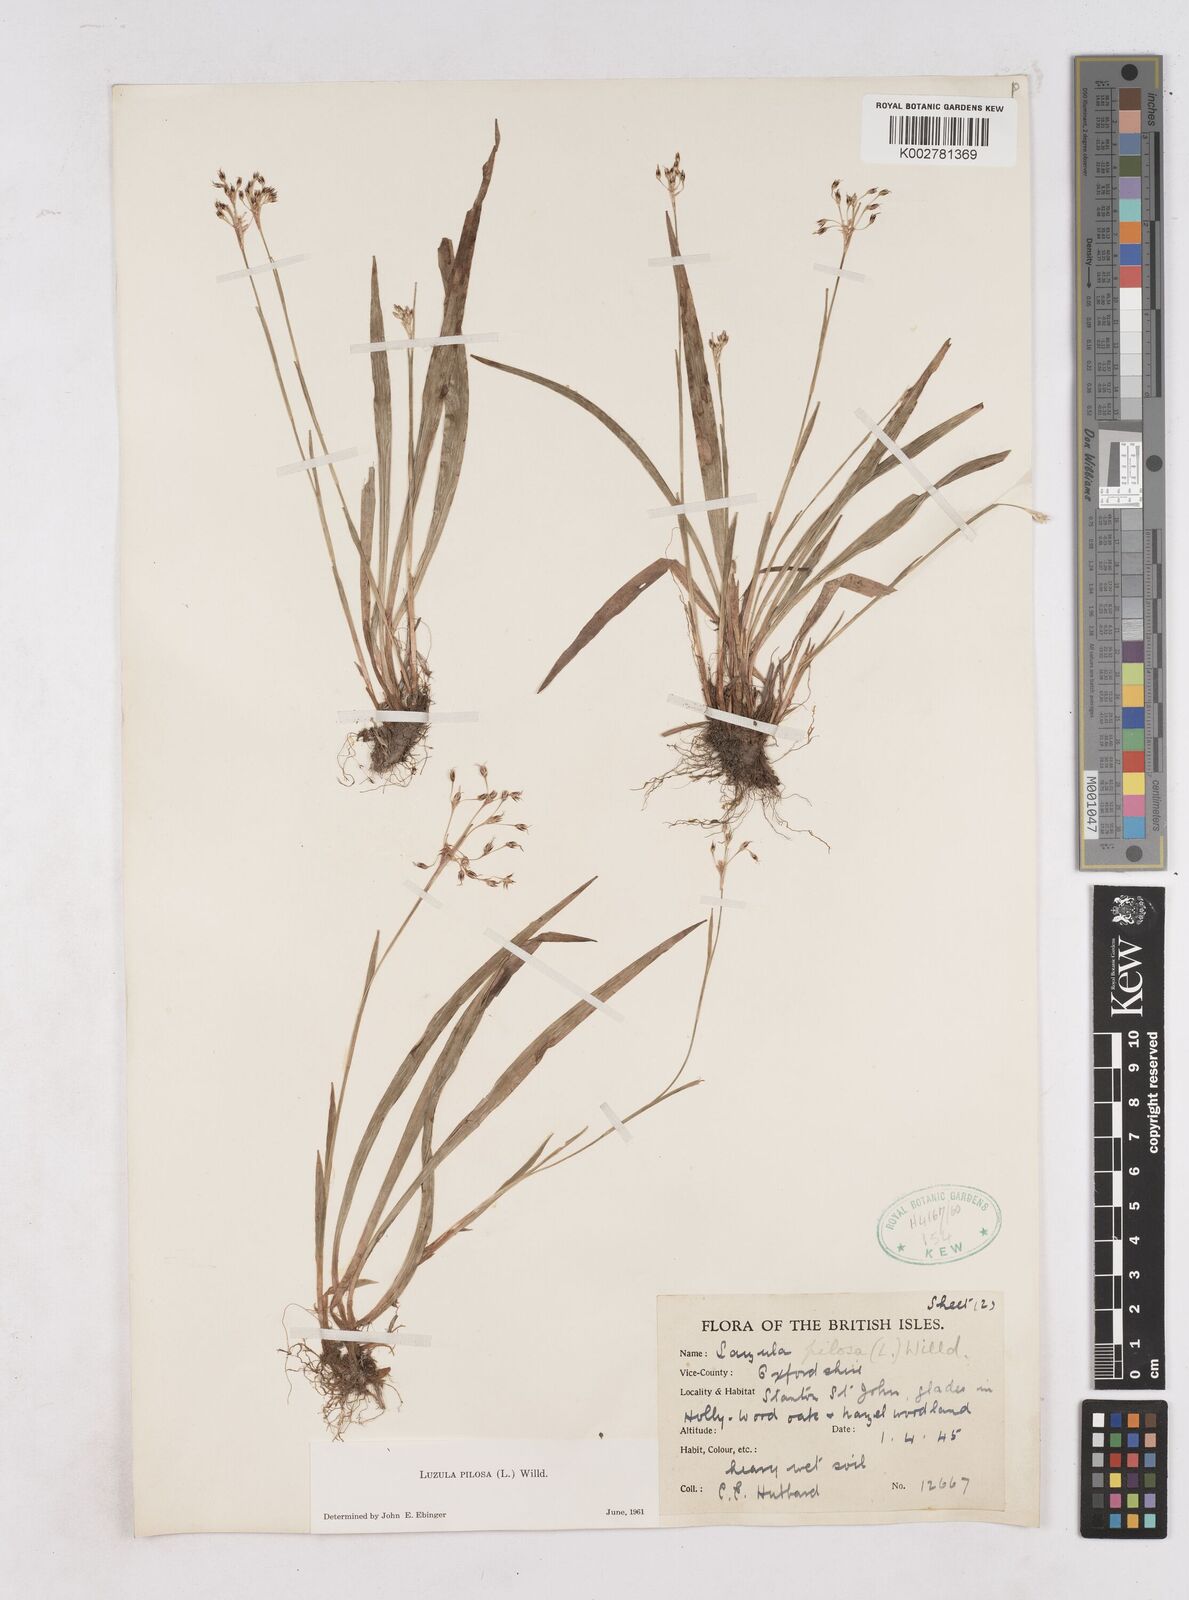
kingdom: Plantae
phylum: Tracheophyta
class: Liliopsida
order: Poales
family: Juncaceae
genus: Luzula
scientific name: Luzula pilosa
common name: Hairy wood-rush
